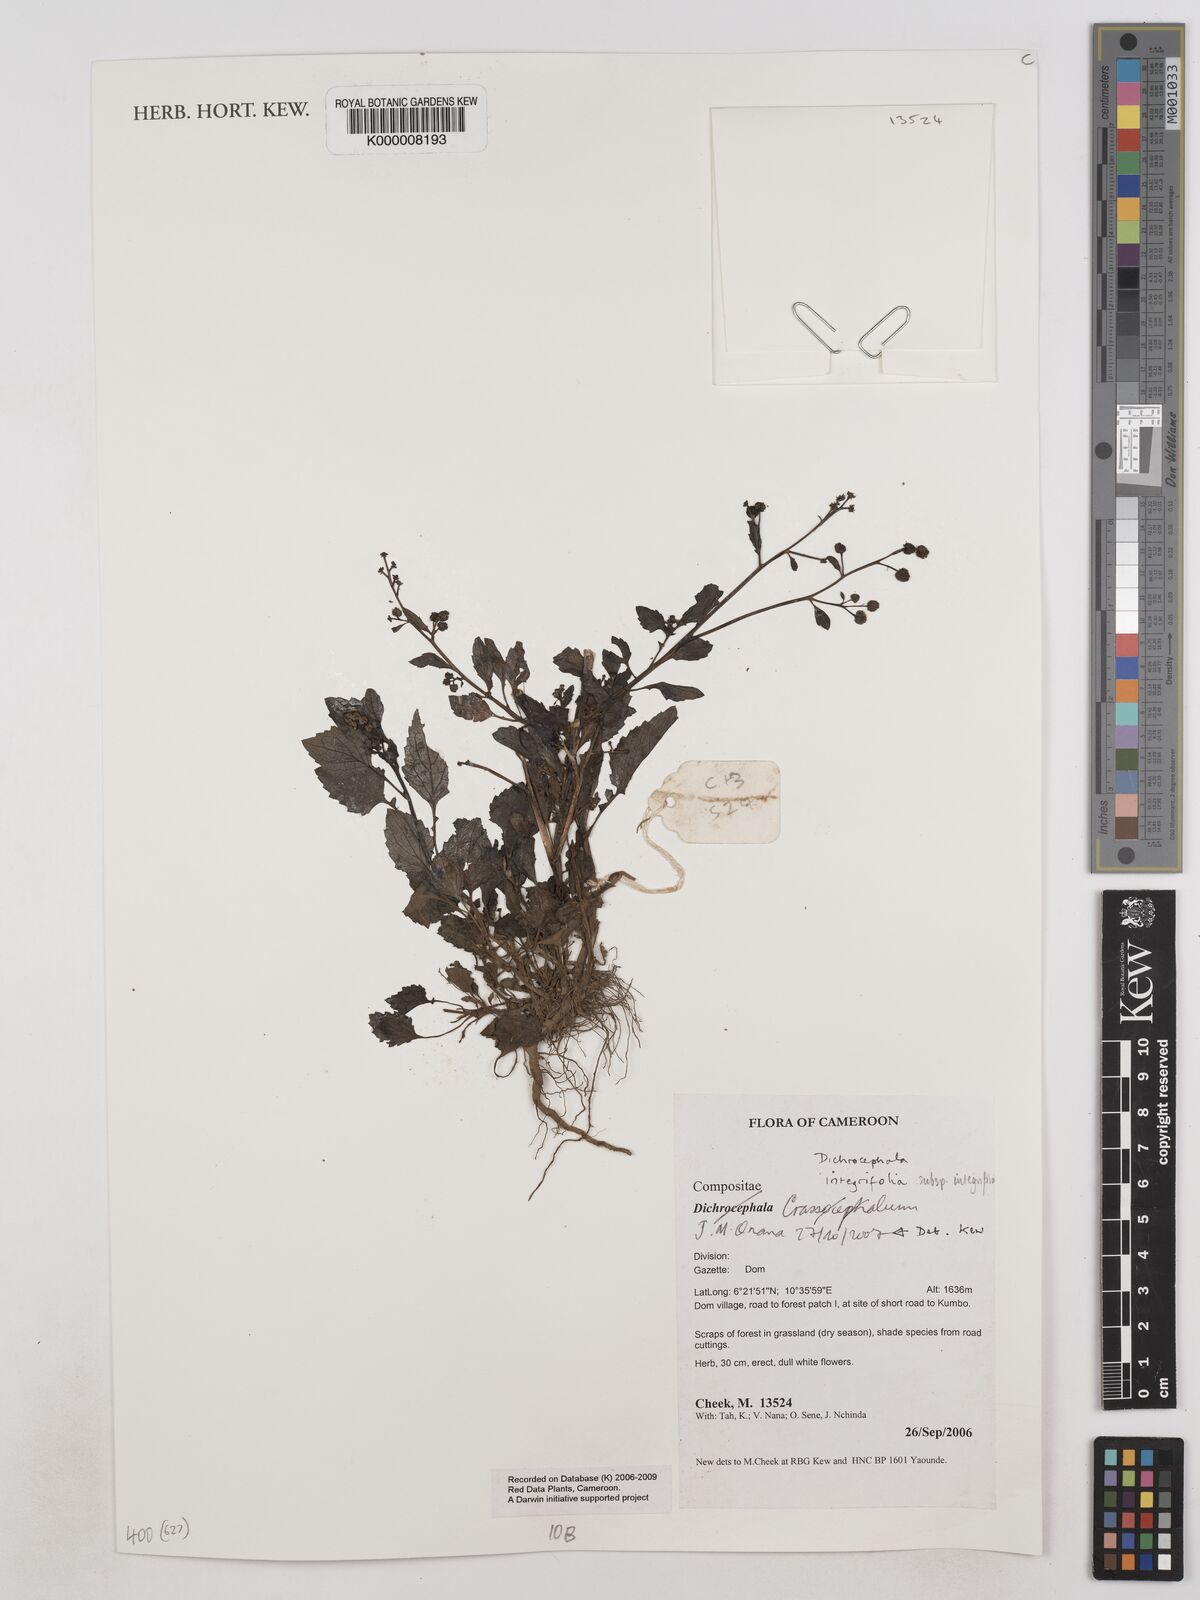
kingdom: Plantae
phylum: Tracheophyta
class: Magnoliopsida
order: Asterales
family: Asteraceae
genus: Dichrocephala
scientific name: Dichrocephala integrifolia
